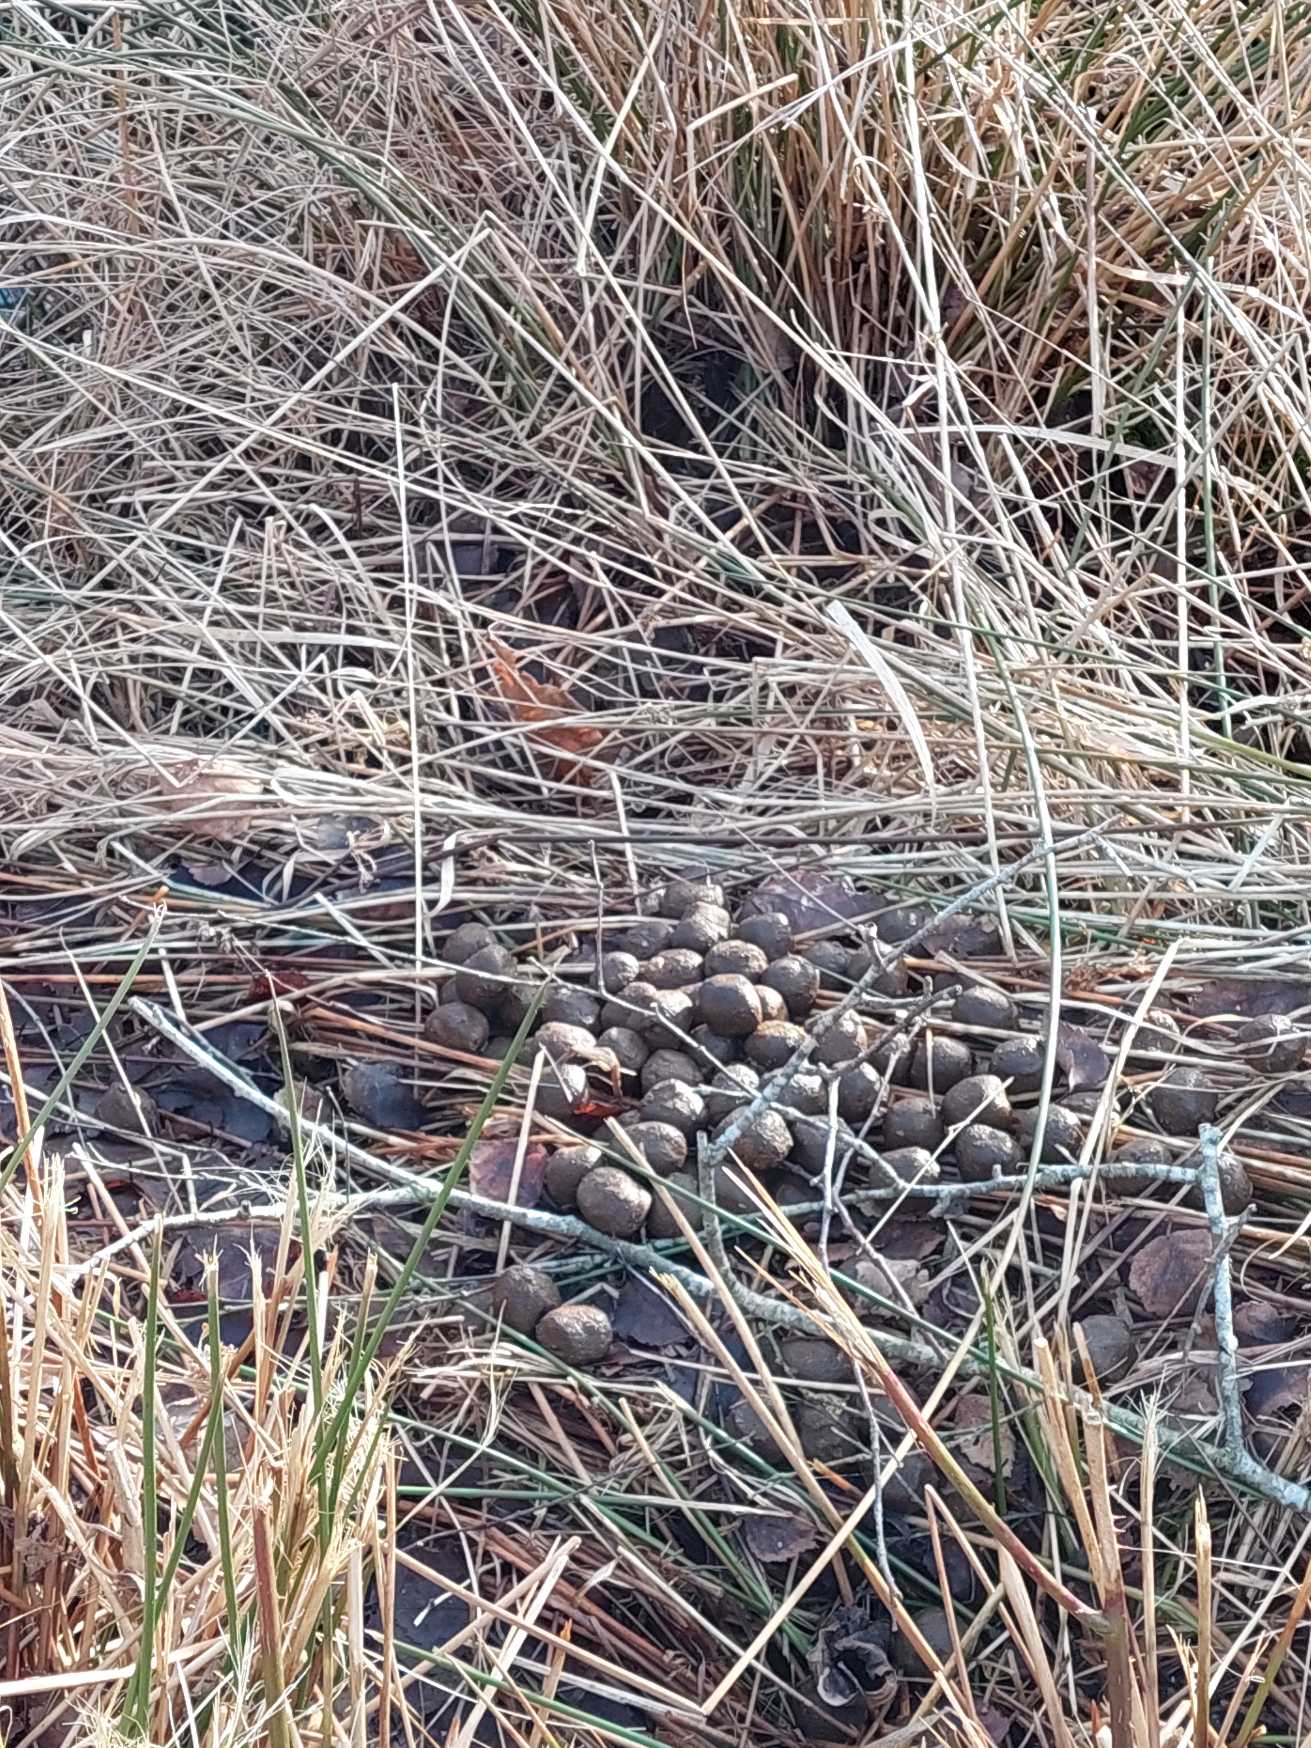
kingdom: Animalia
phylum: Chordata
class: Mammalia
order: Artiodactyla
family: Cervidae
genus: Alces
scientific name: Alces alces
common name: Elg
